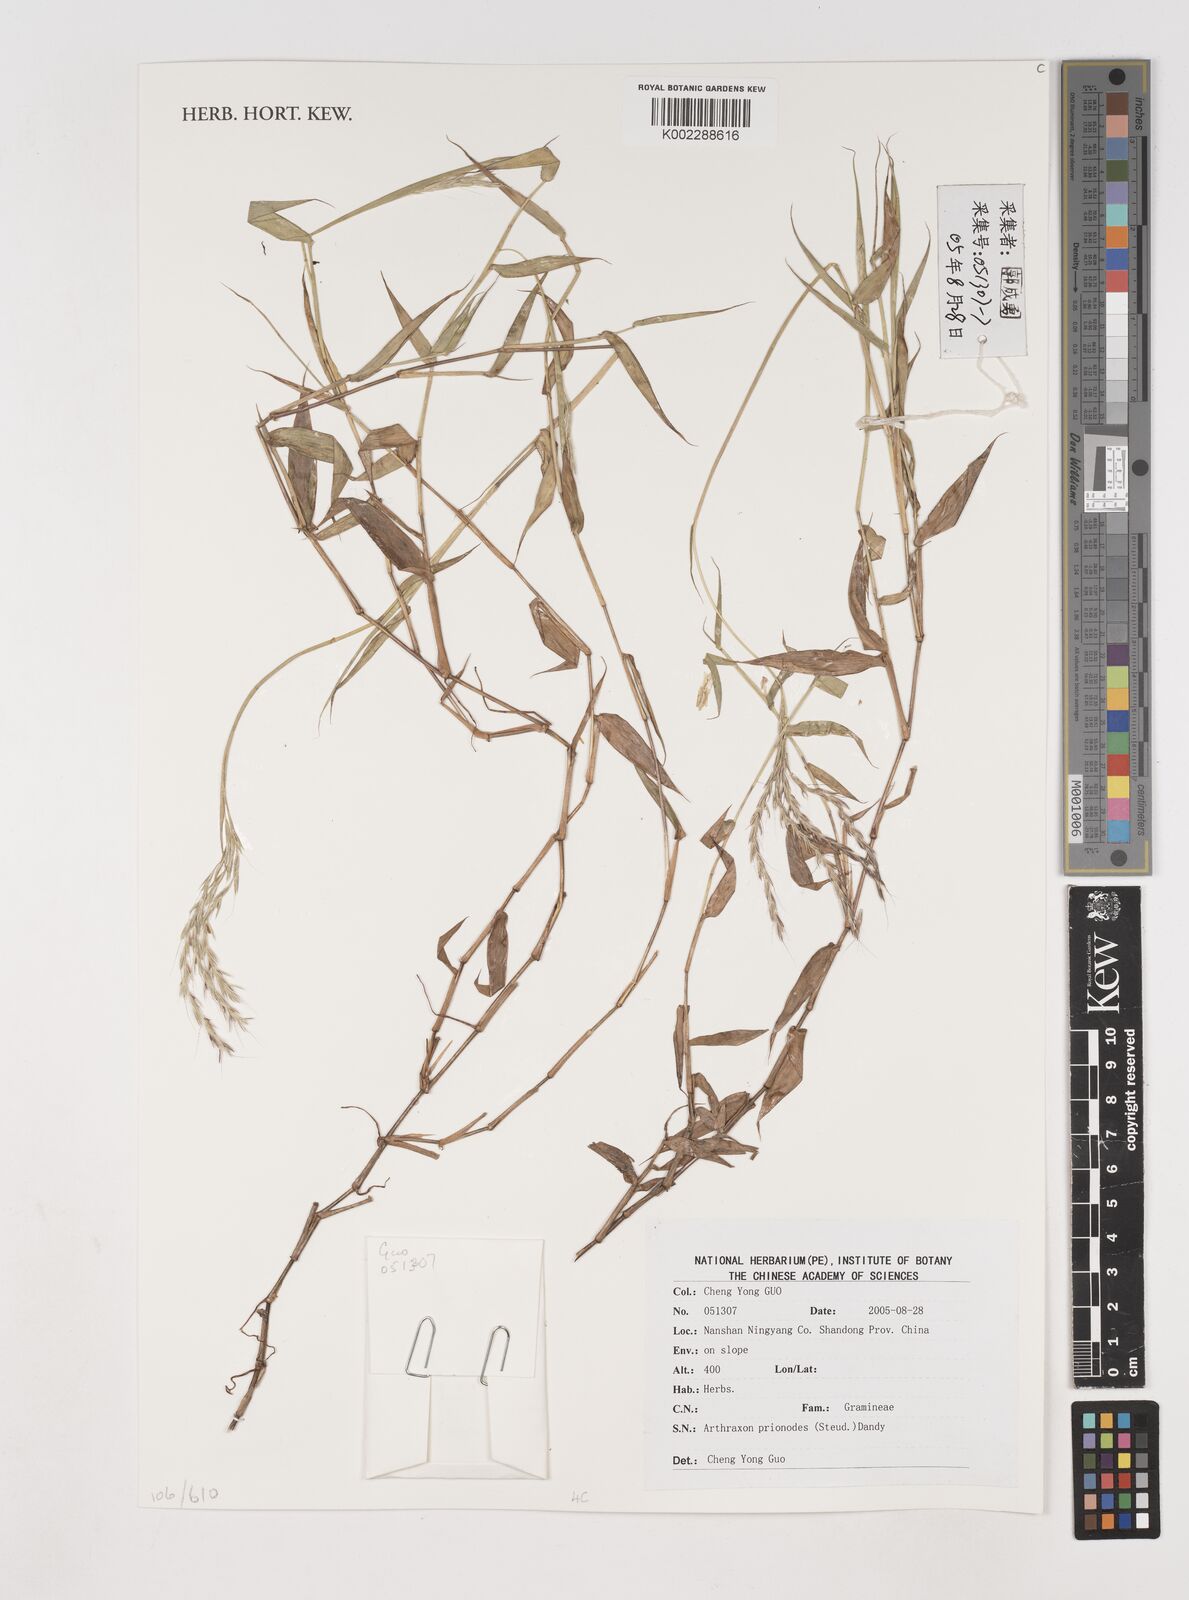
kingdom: Plantae
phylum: Tracheophyta
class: Liliopsida
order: Poales
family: Poaceae
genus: Arthraxon
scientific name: Arthraxon prionodes
